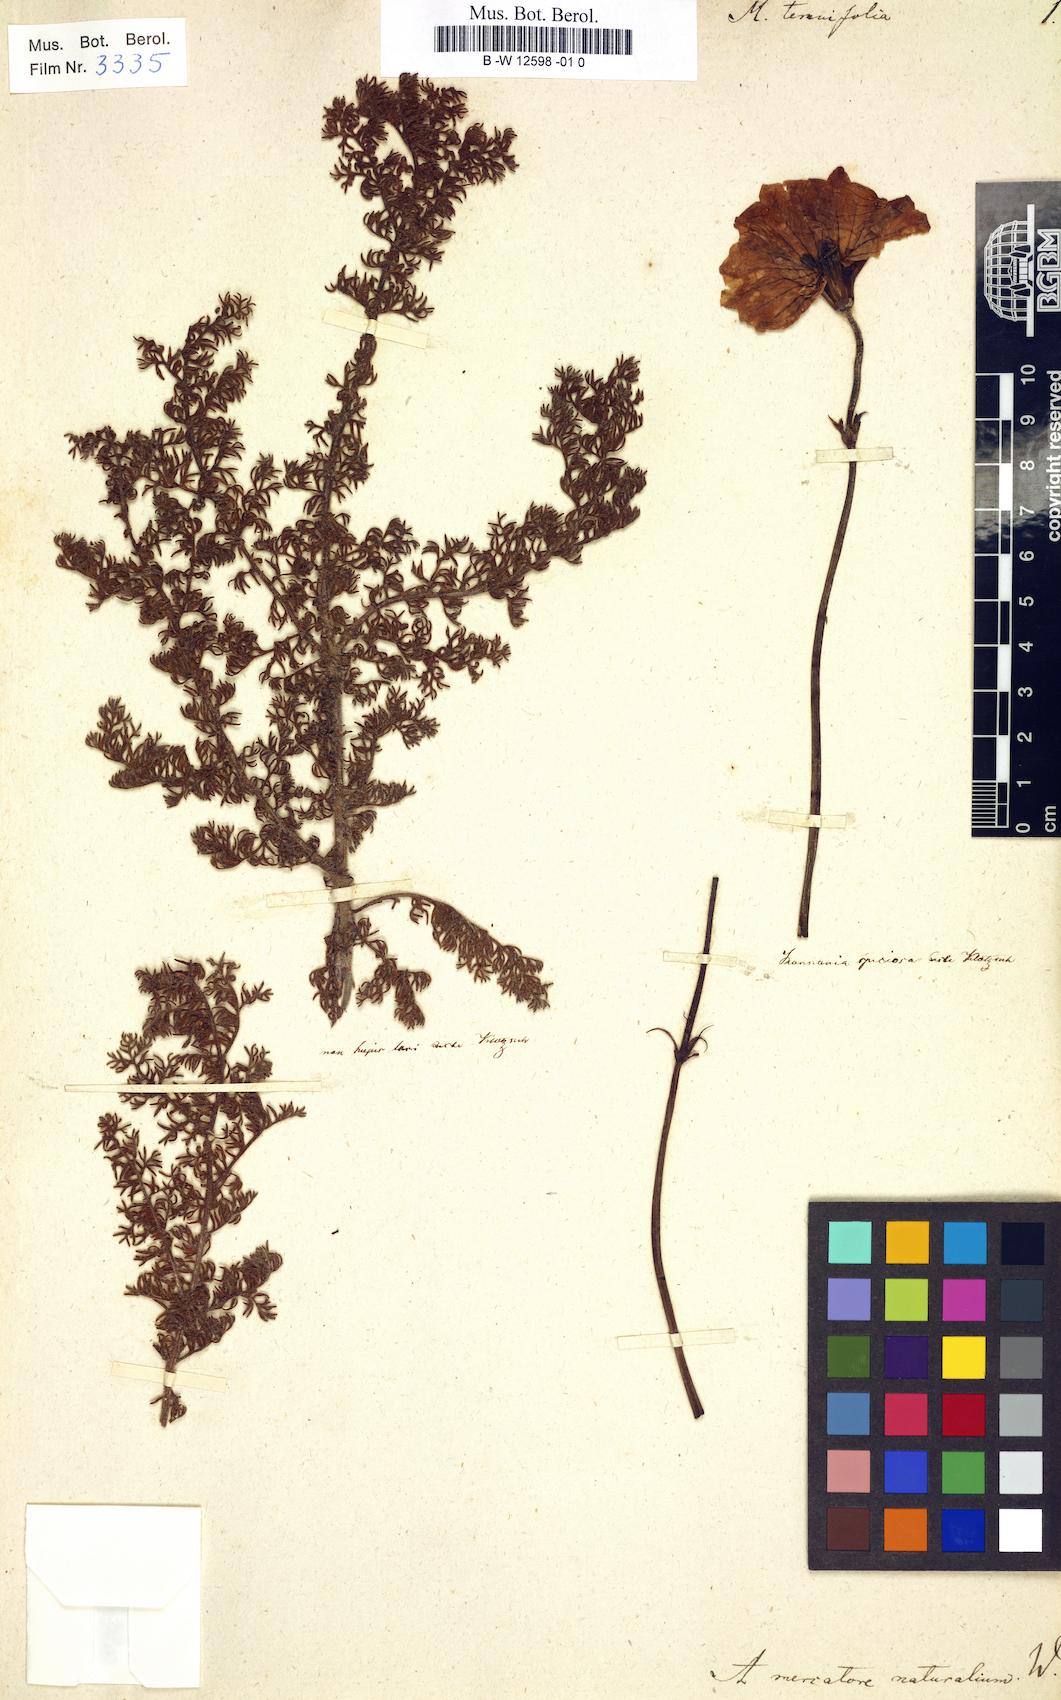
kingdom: Plantae
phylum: Tracheophyta
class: Magnoliopsida
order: Geraniales
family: Geraniaceae
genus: Monsonia
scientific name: Monsonia tenuifolia
